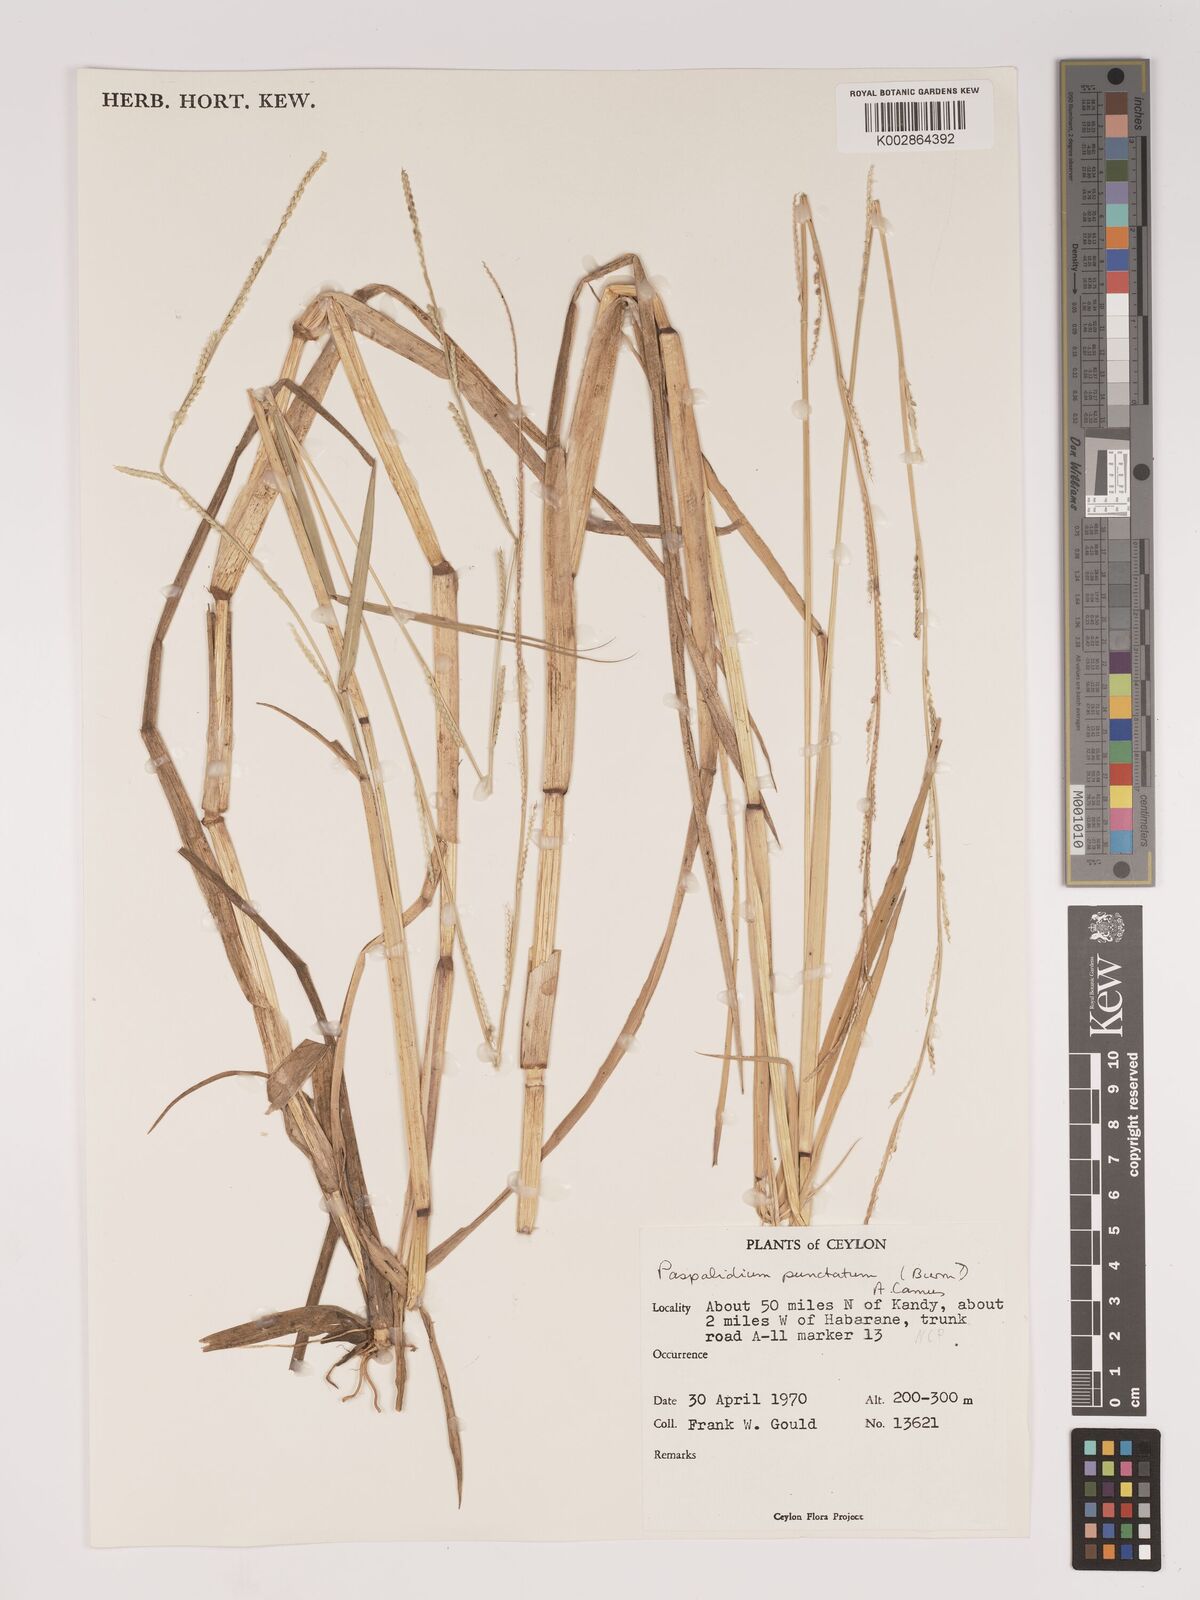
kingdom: Plantae
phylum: Tracheophyta
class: Liliopsida
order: Poales
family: Poaceae
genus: Setaria
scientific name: Setaria punctata
